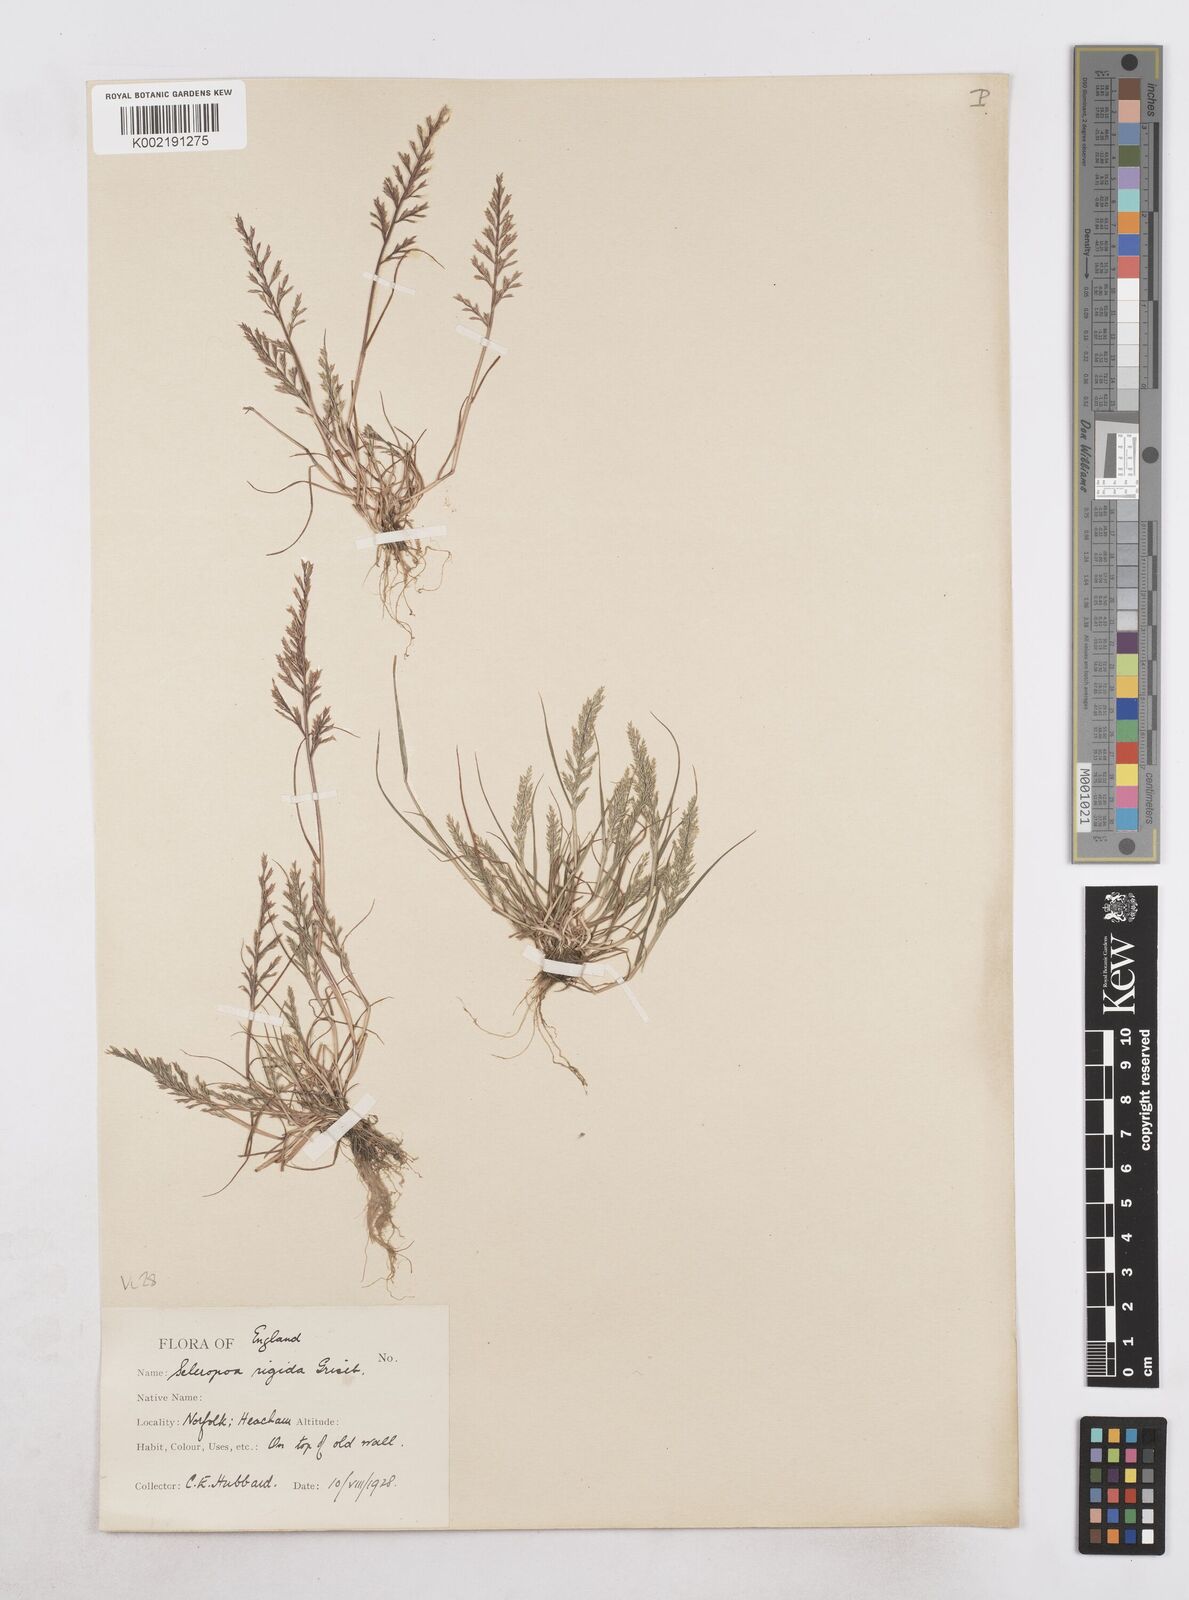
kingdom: Plantae
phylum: Tracheophyta
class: Liliopsida
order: Poales
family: Poaceae
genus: Catapodium
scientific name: Catapodium rigidum
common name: Fern-grass
